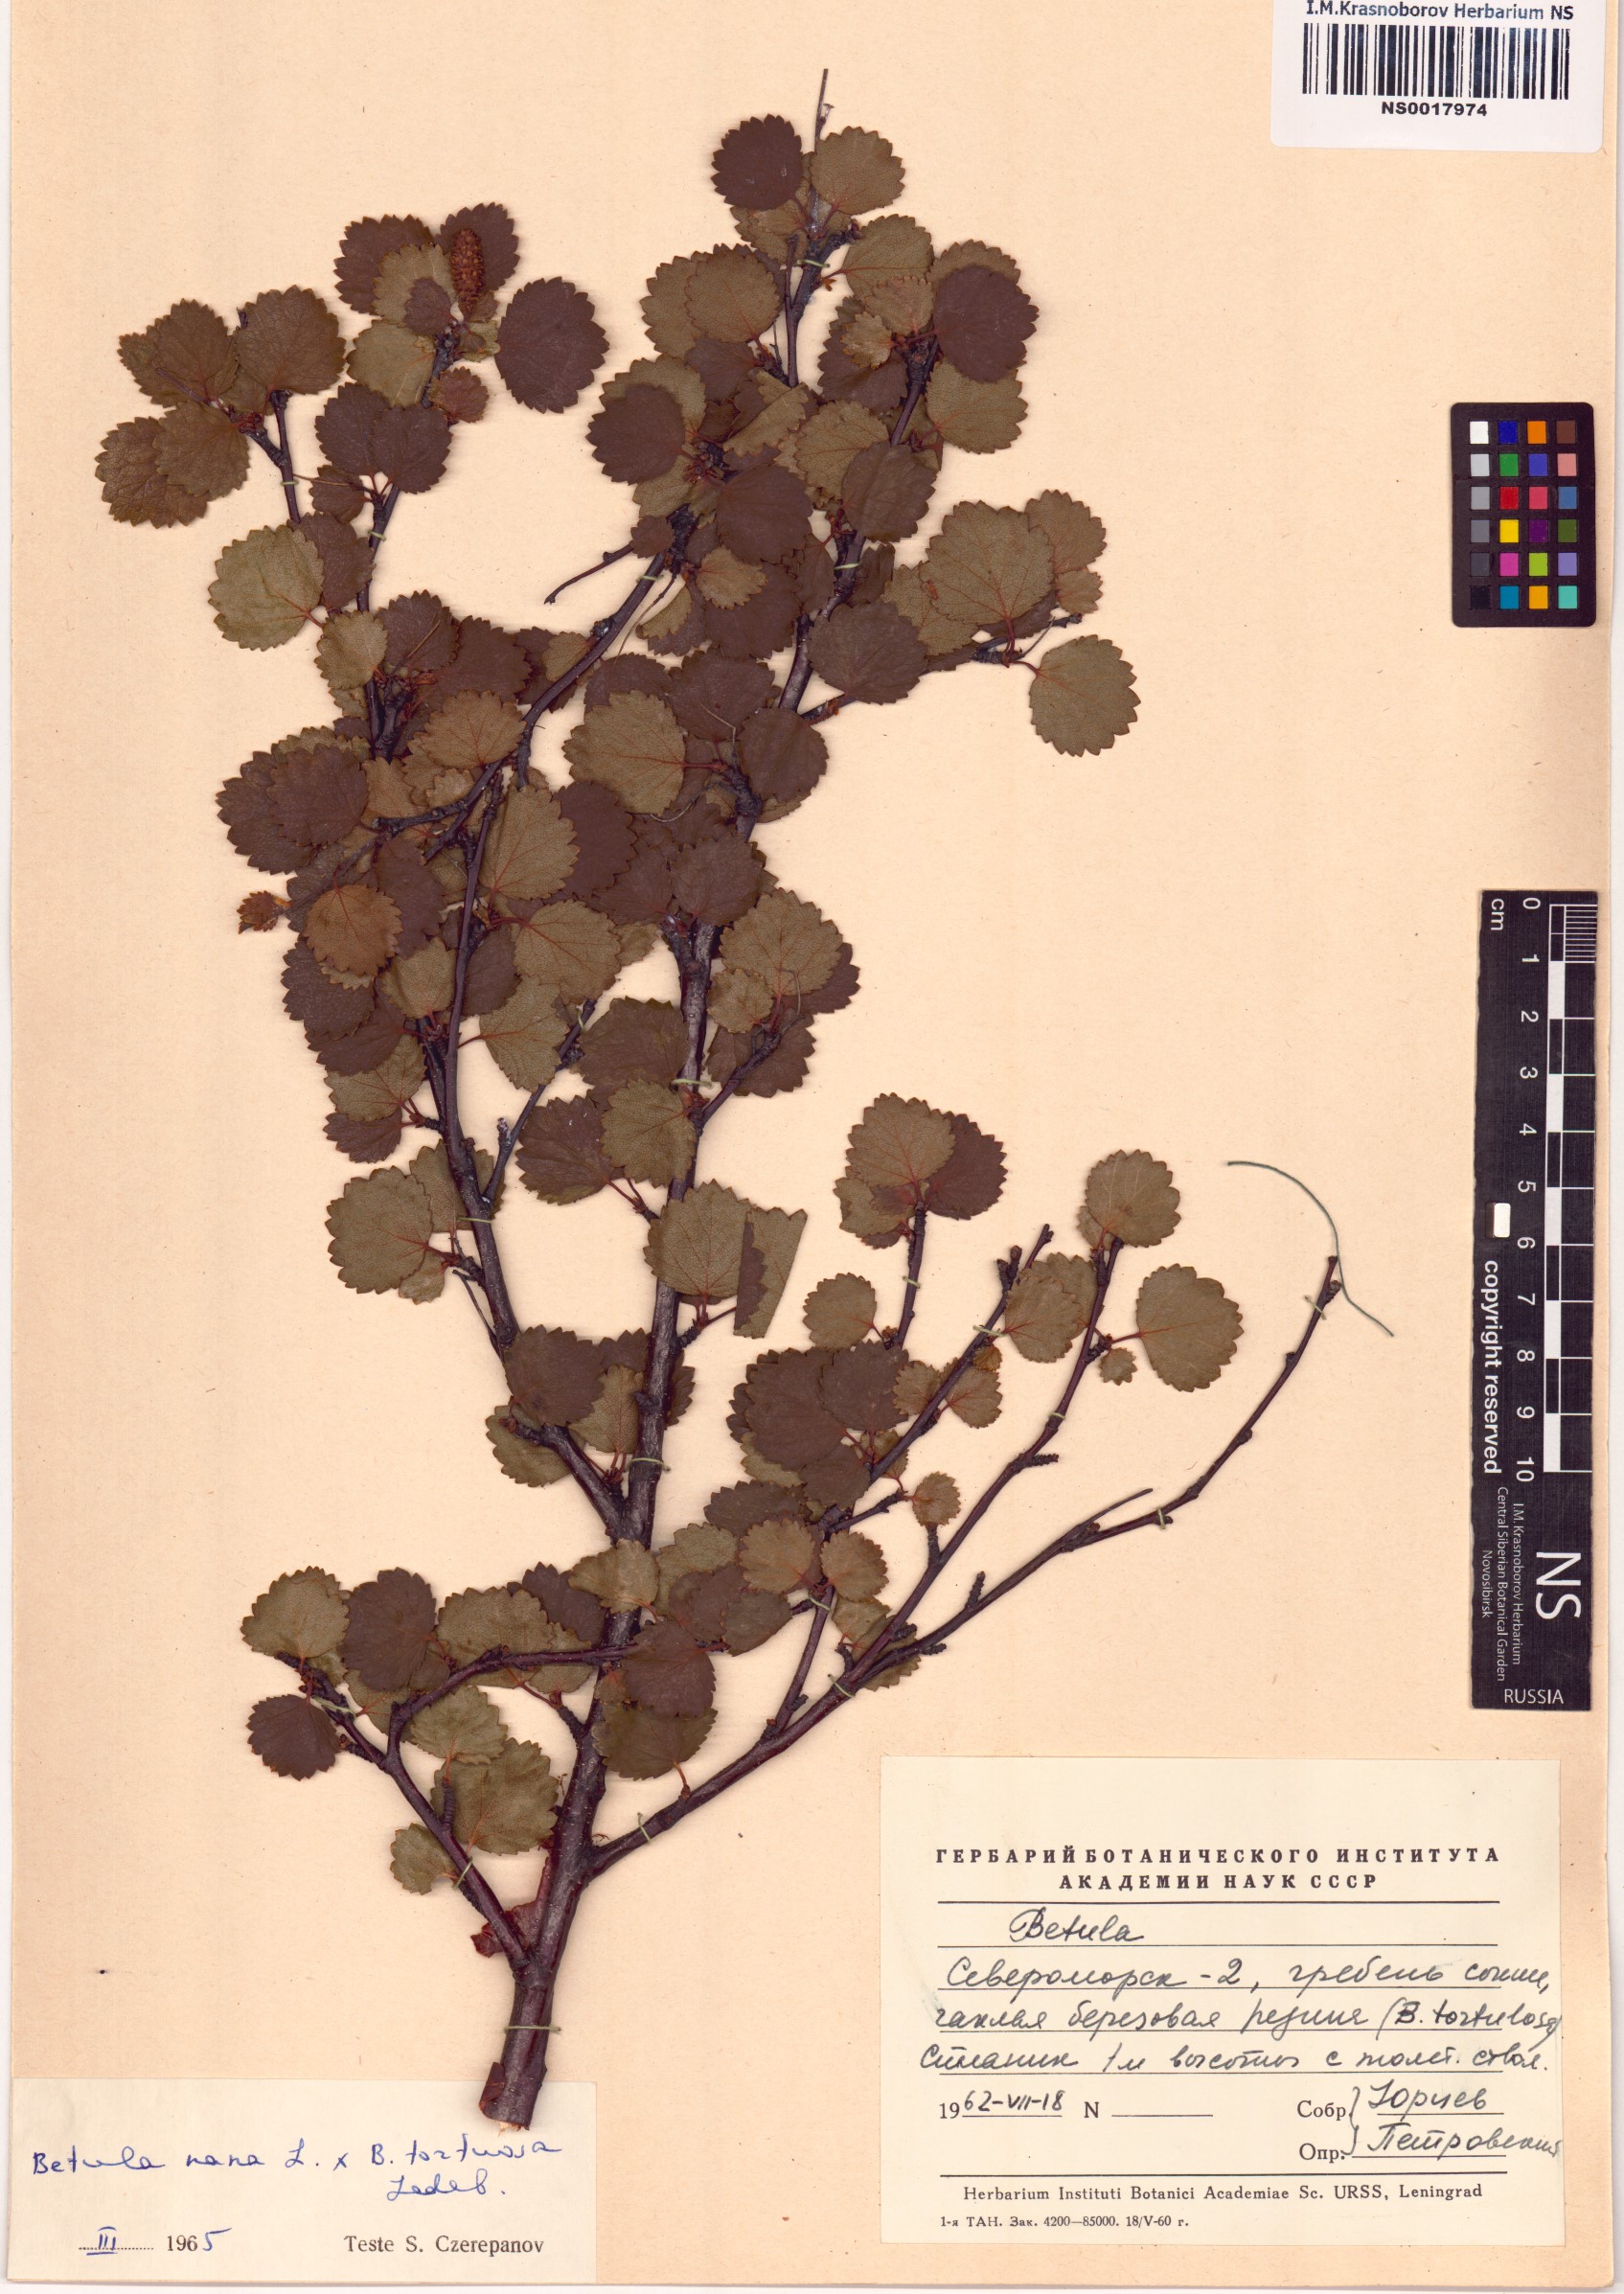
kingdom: Plantae
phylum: Tracheophyta
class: Magnoliopsida
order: Fagales
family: Betulaceae
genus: Betula
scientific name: Betula nana
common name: Arctic dwarf birch
